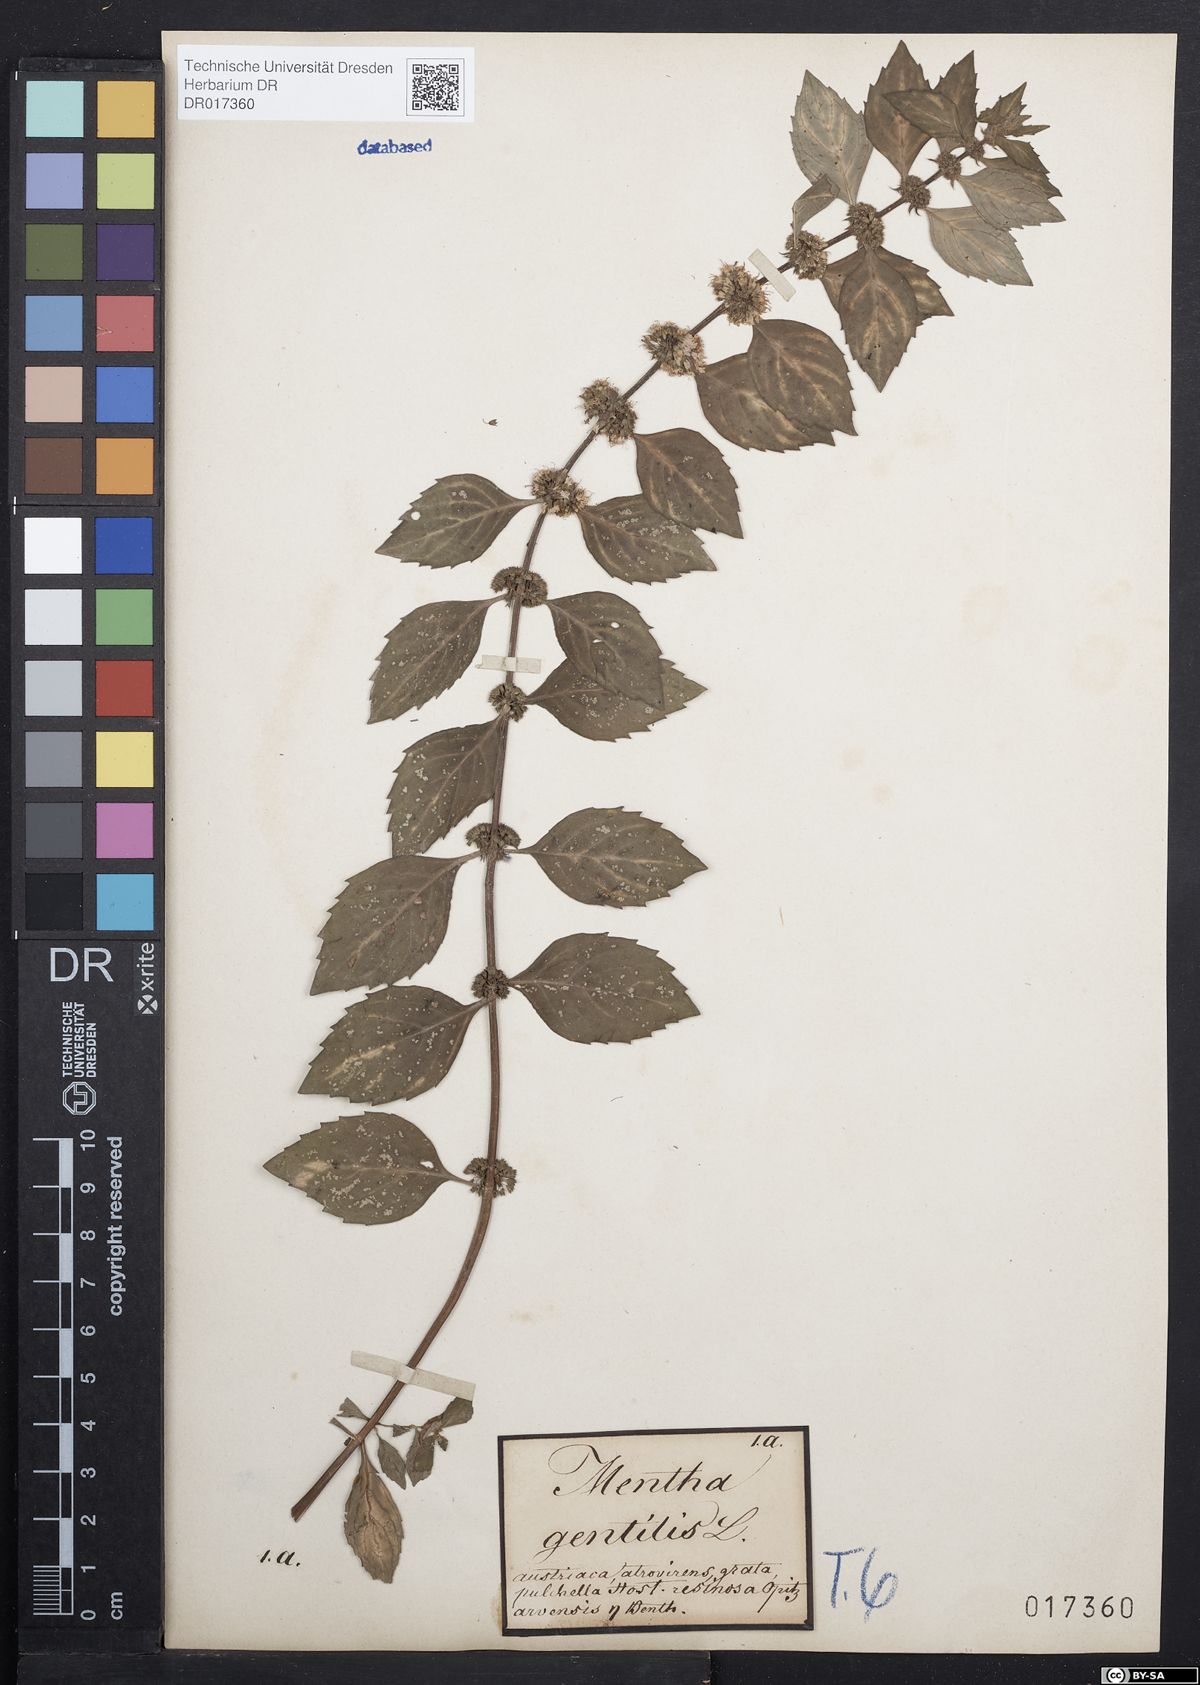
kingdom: Plantae
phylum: Tracheophyta
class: Magnoliopsida
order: Lamiales
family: Lamiaceae
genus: Mentha
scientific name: Mentha gracilis
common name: Bushy mint
